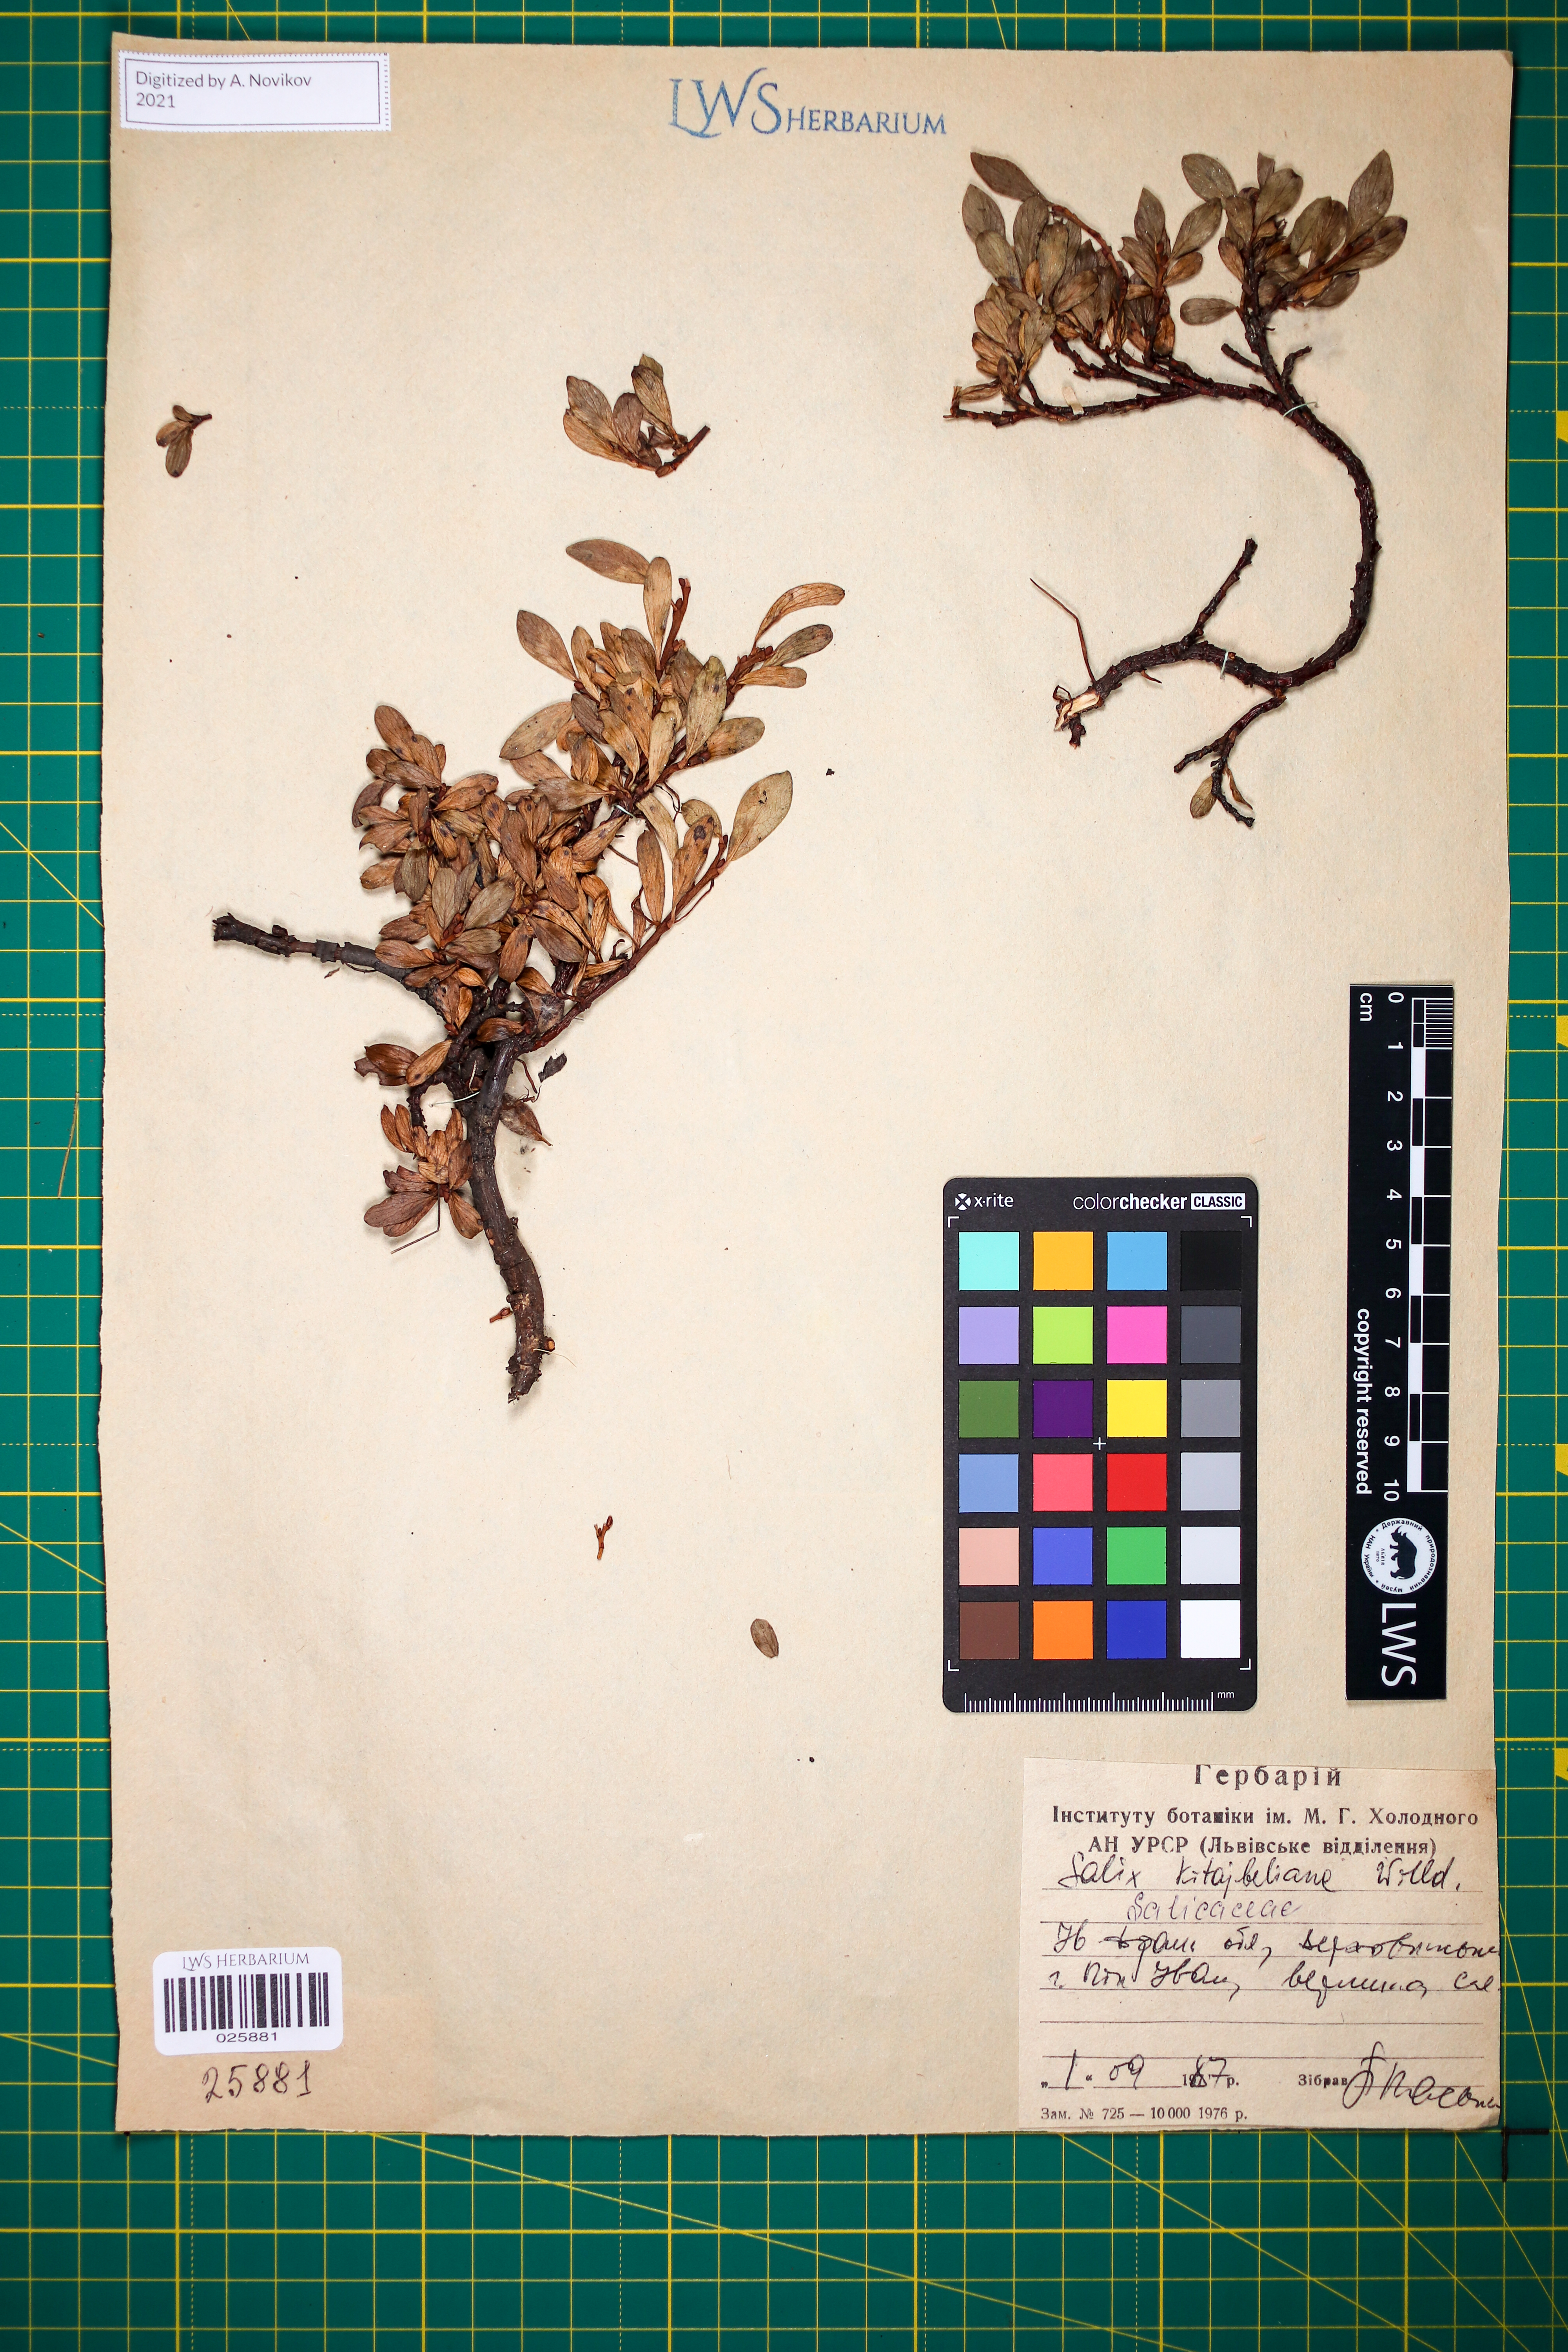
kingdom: Plantae
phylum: Tracheophyta
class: Magnoliopsida
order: Malpighiales
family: Salicaceae
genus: Salix
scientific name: Salix retusa
